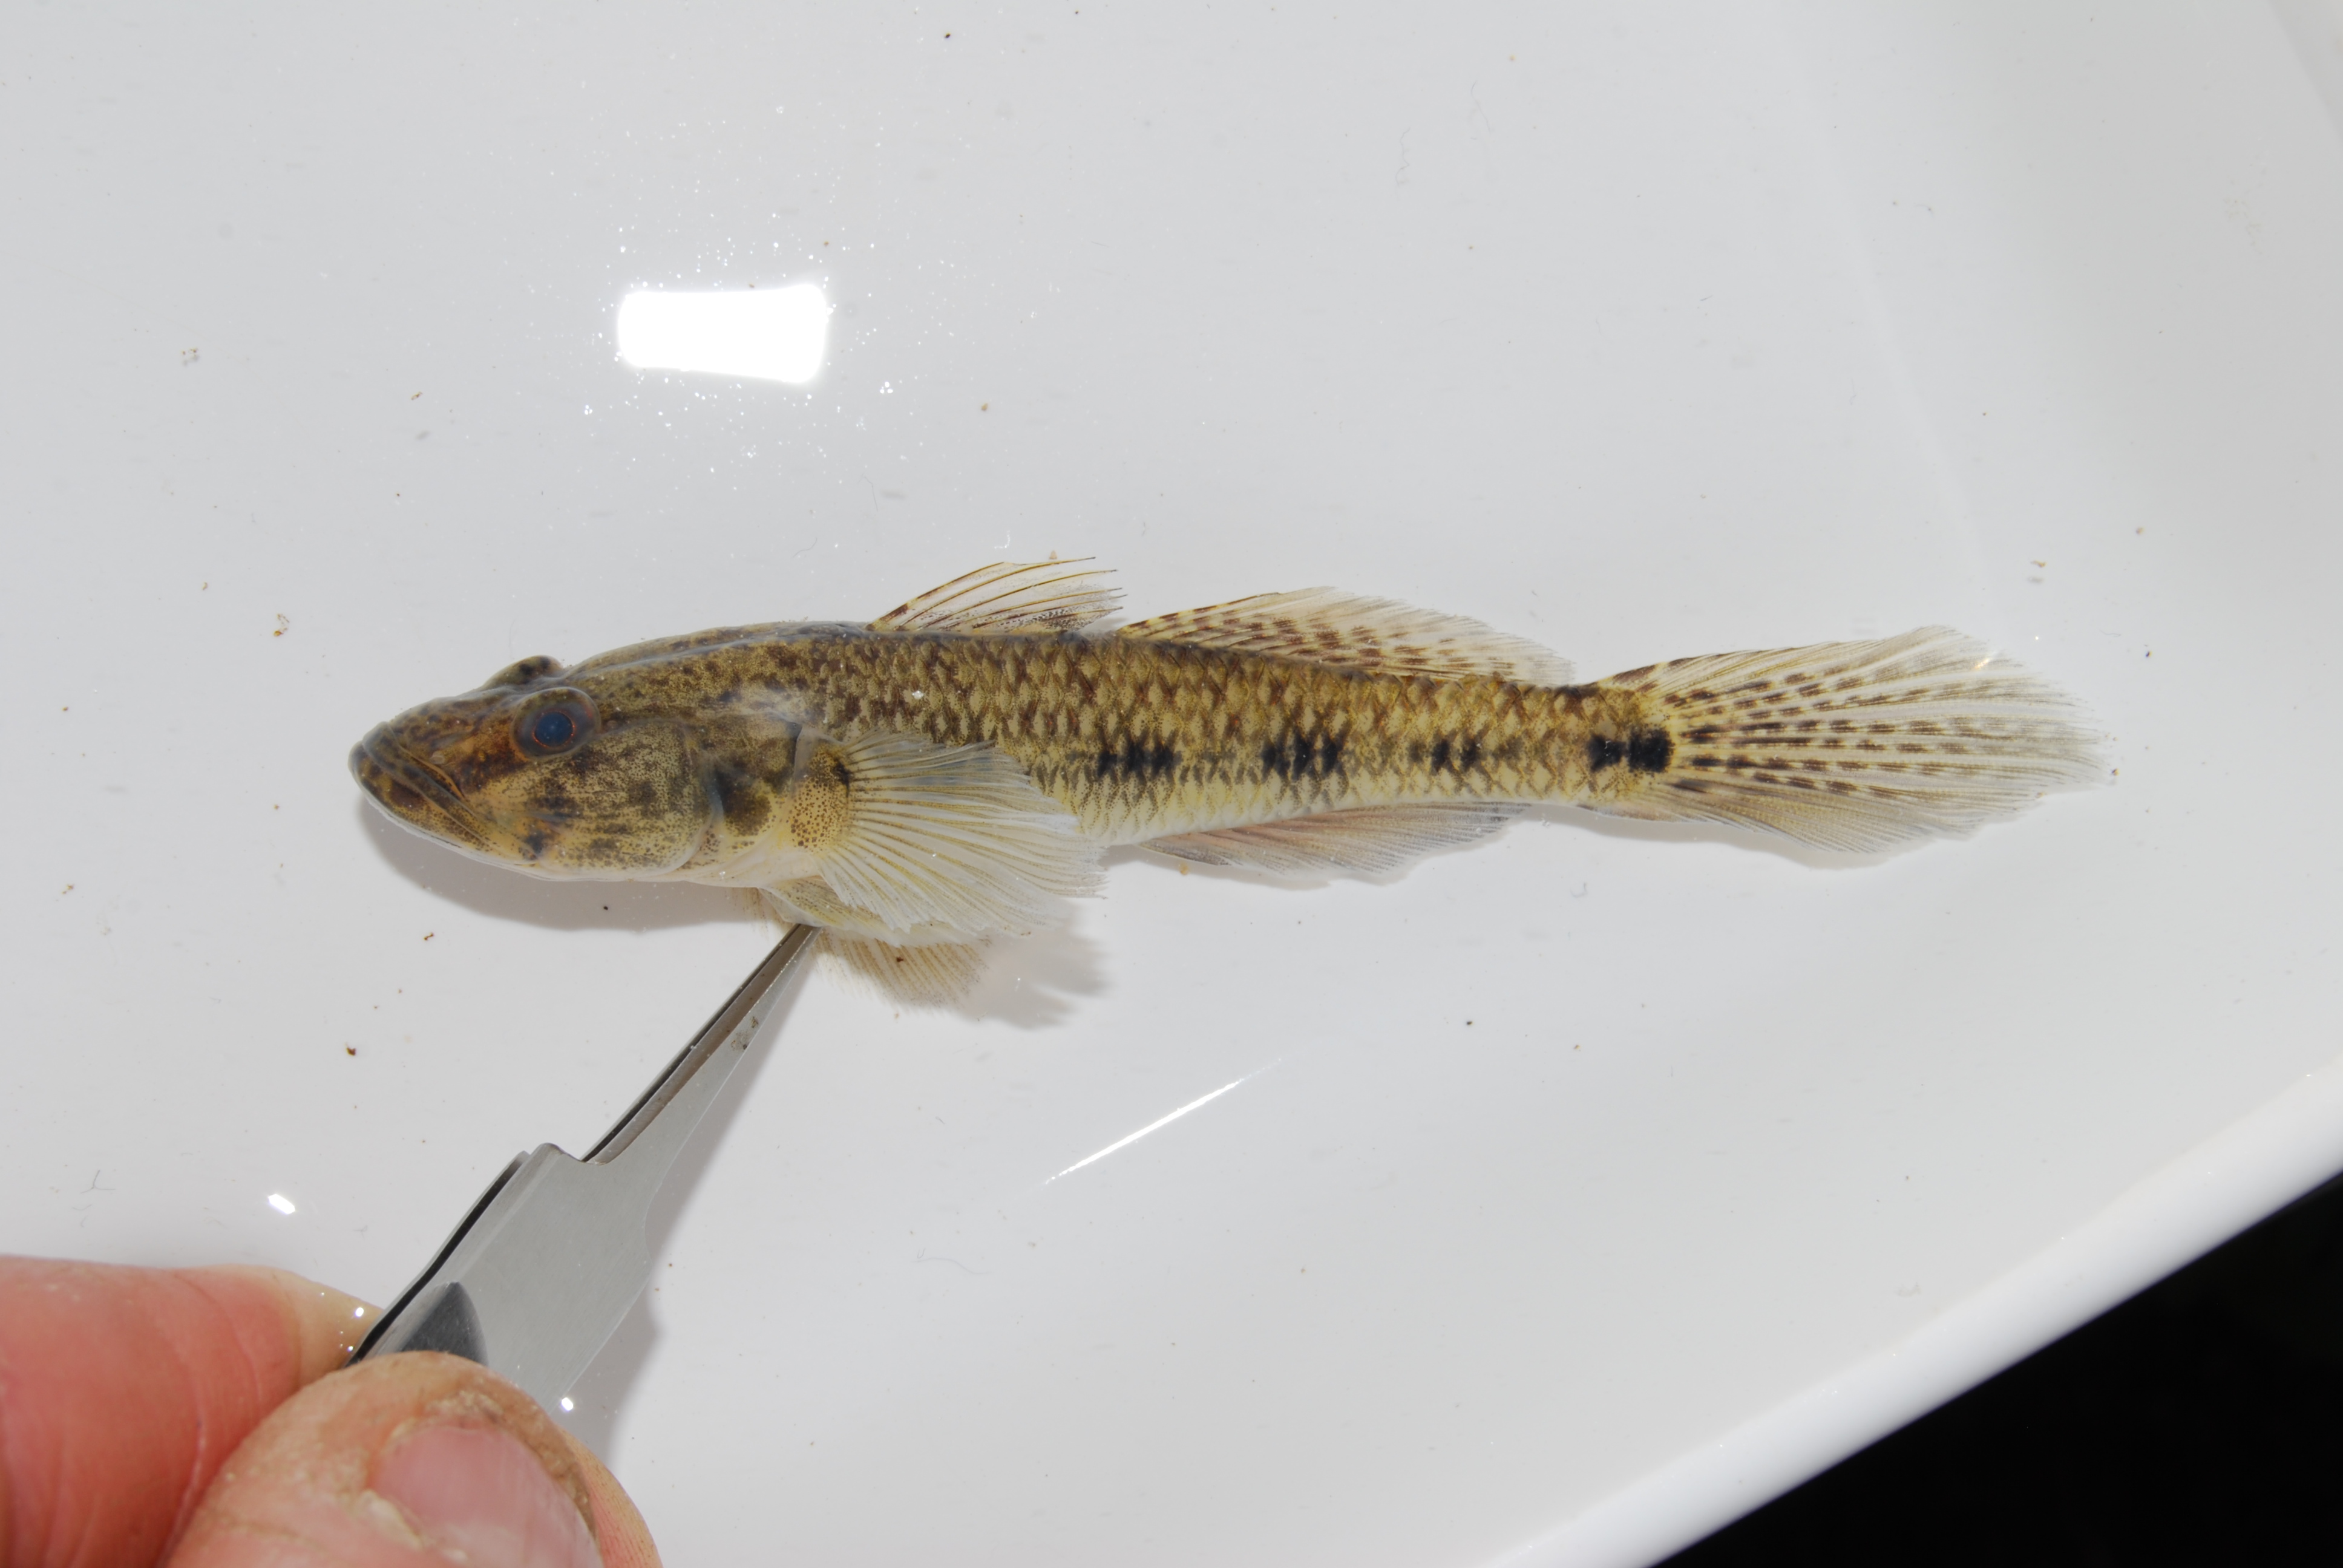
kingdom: Animalia
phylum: Chordata
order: Perciformes
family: Gobiidae
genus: Glossogobius
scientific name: Glossogobius callidus
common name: River goby
